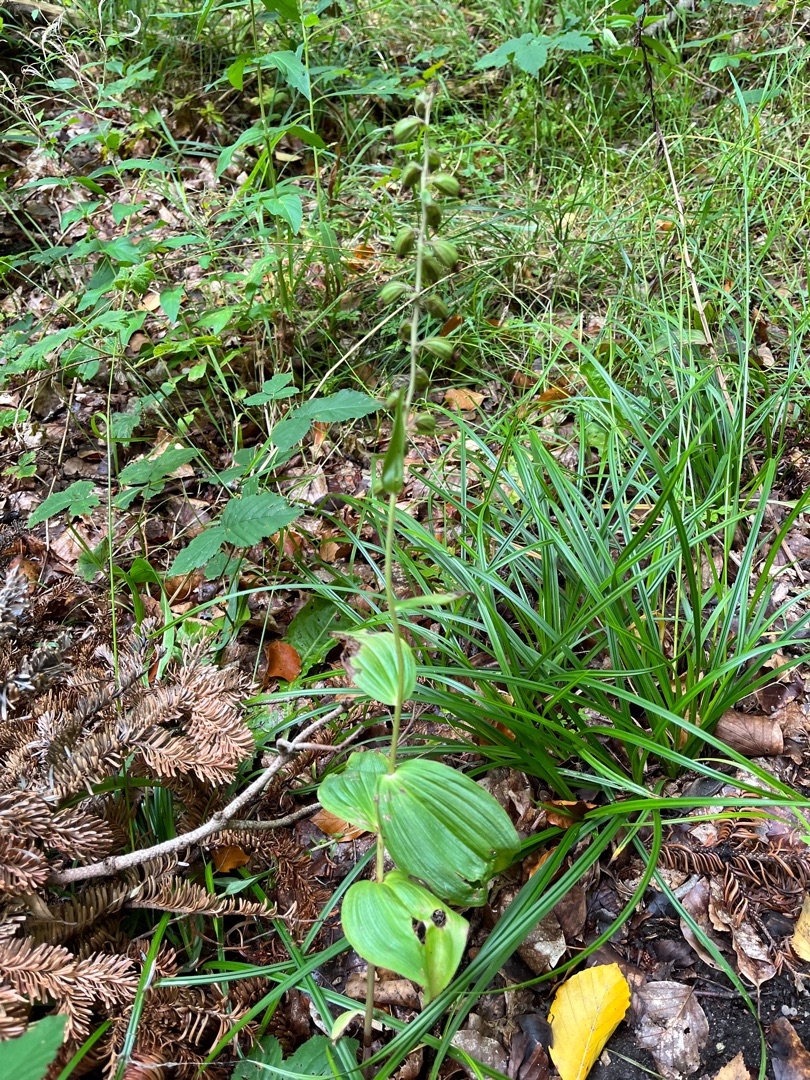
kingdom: Plantae
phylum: Tracheophyta
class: Liliopsida
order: Asparagales
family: Orchidaceae
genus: Epipactis
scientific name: Epipactis helleborine
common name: Skov-hullæbe
